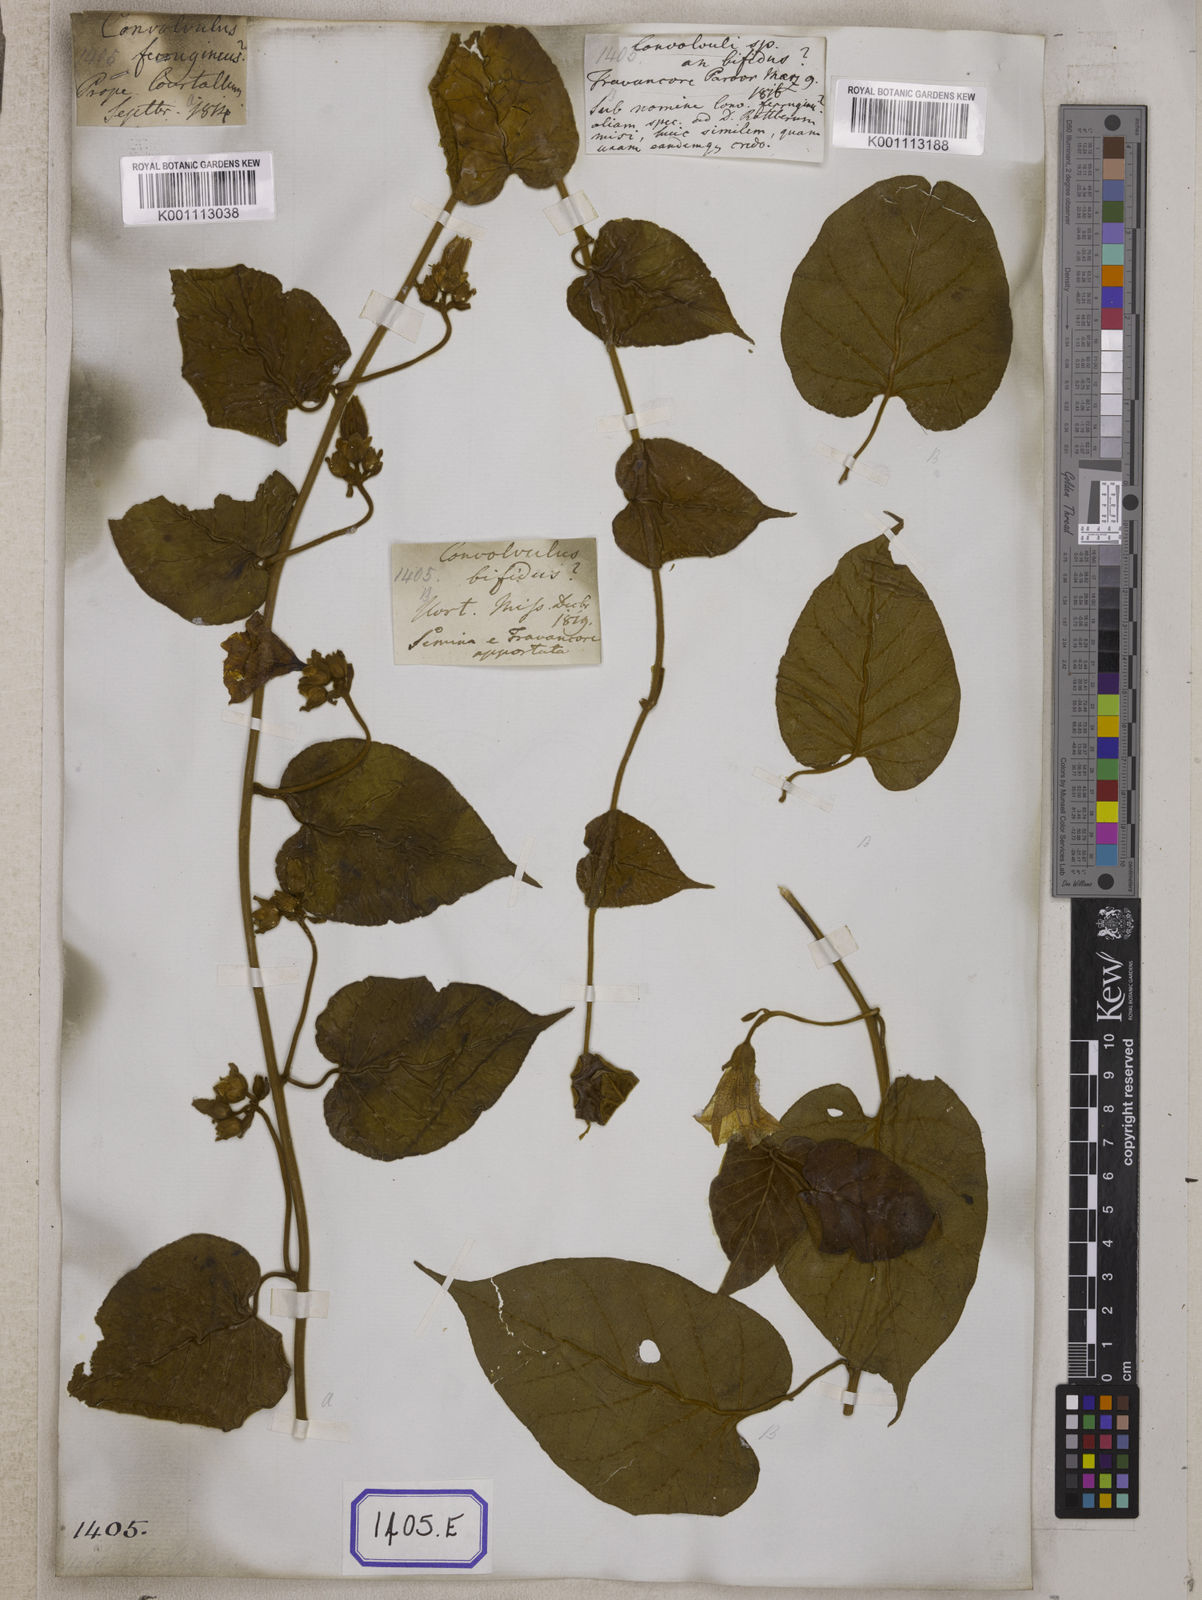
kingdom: Plantae
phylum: Tracheophyta
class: Magnoliopsida
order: Solanales
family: Convolvulaceae
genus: Bonamia
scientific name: Bonamia semidigyna
